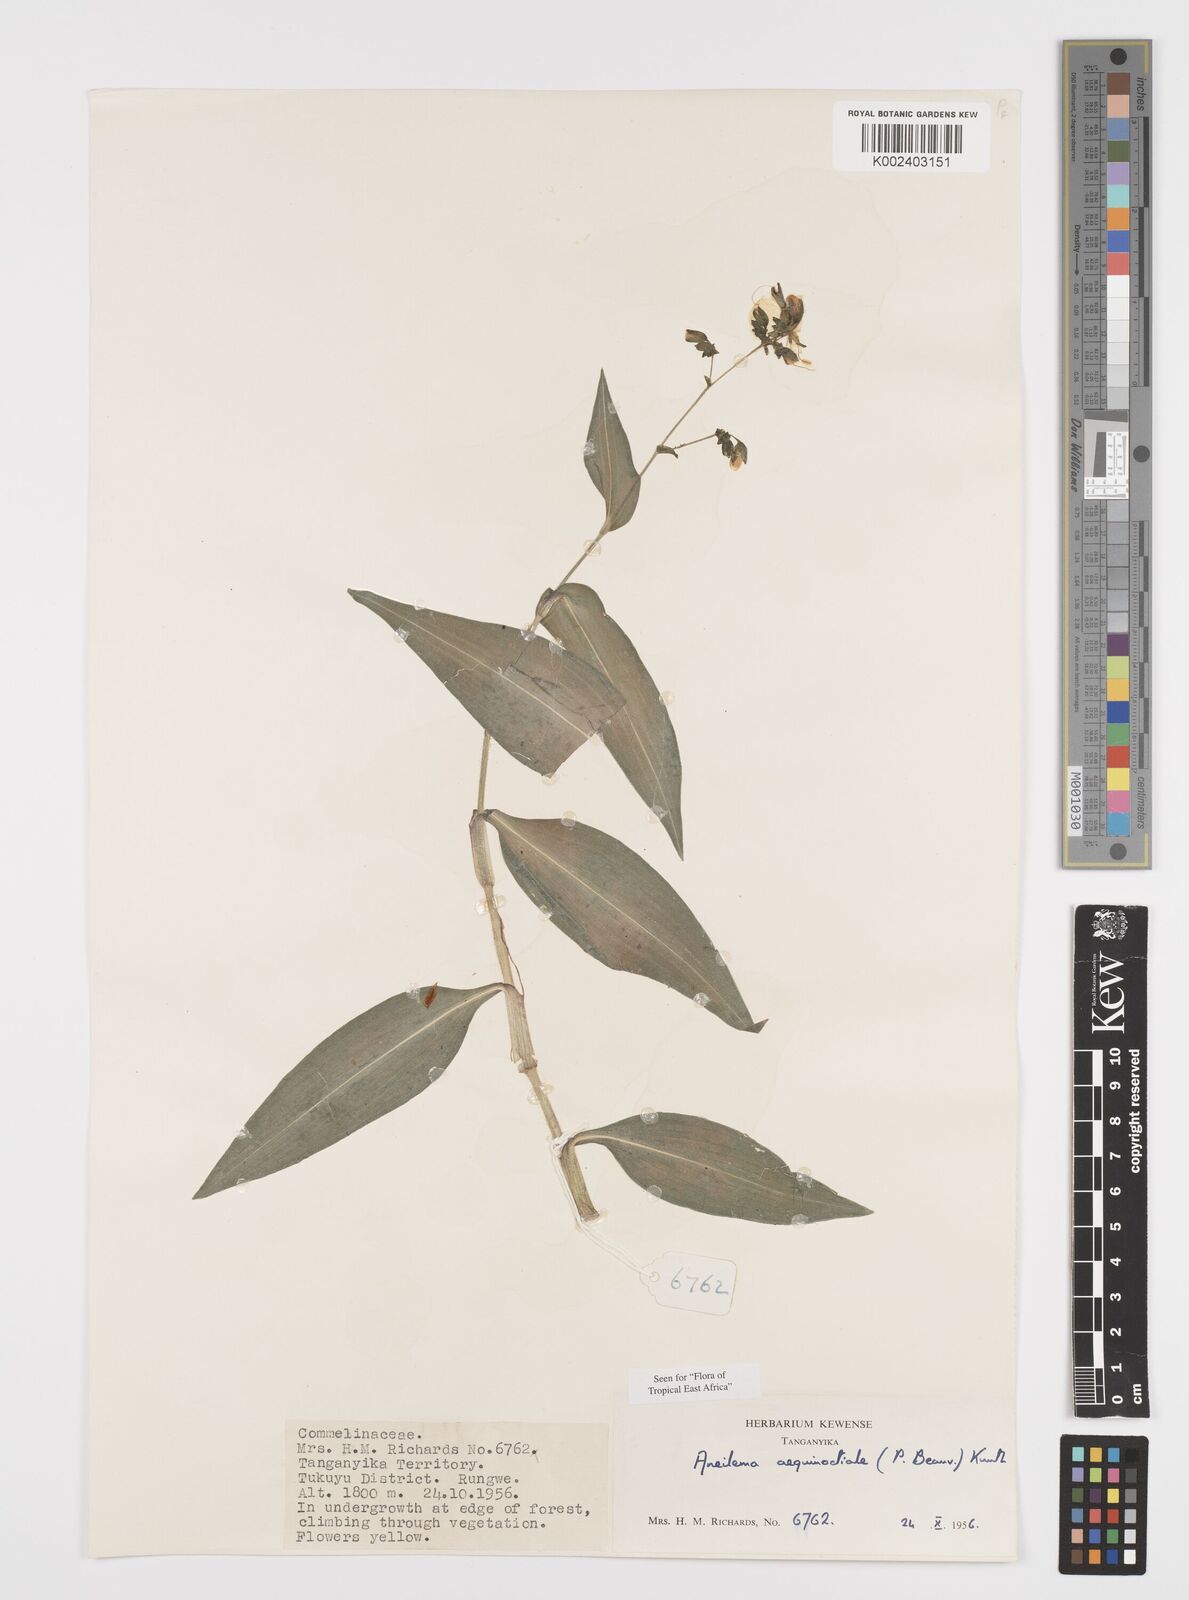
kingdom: Plantae
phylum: Tracheophyta
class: Liliopsida
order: Commelinales
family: Commelinaceae
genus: Aneilema
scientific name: Aneilema aequinoctiale
